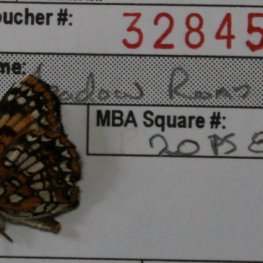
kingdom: Animalia
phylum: Arthropoda
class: Insecta
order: Lepidoptera
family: Nymphalidae
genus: Chlosyne
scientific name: Chlosyne harrisii
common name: Harris's Checkerspot
